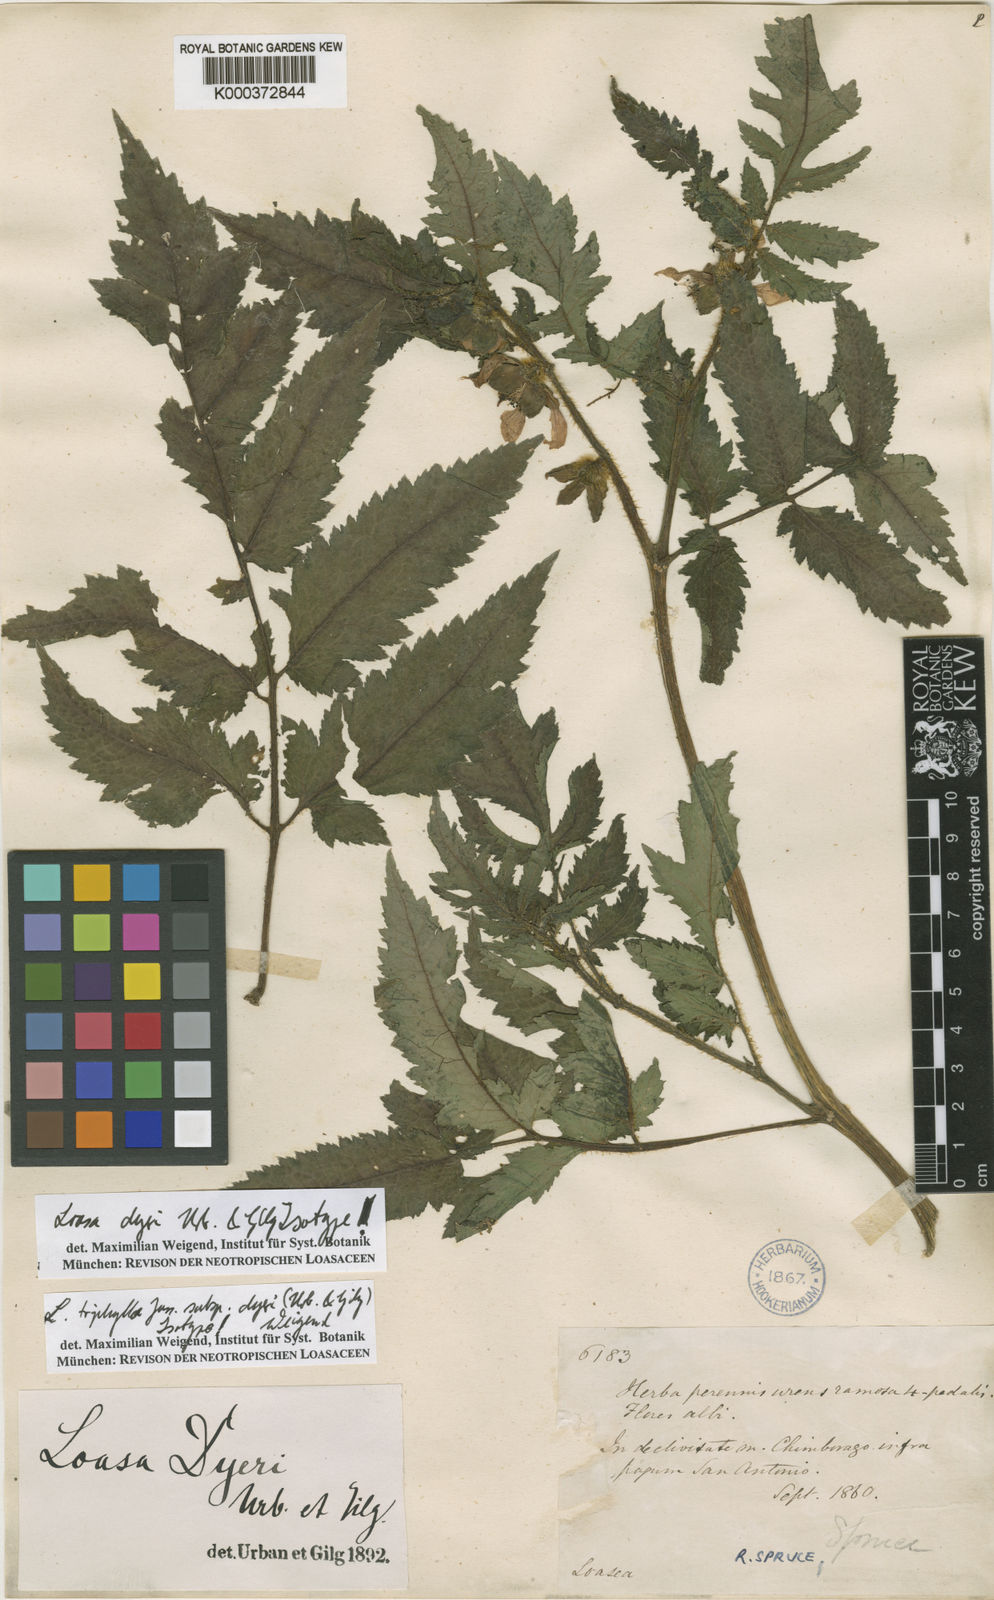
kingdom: Plantae
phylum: Tracheophyta
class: Magnoliopsida
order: Cornales
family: Loasaceae
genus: Nasa
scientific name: Nasa dyeri
